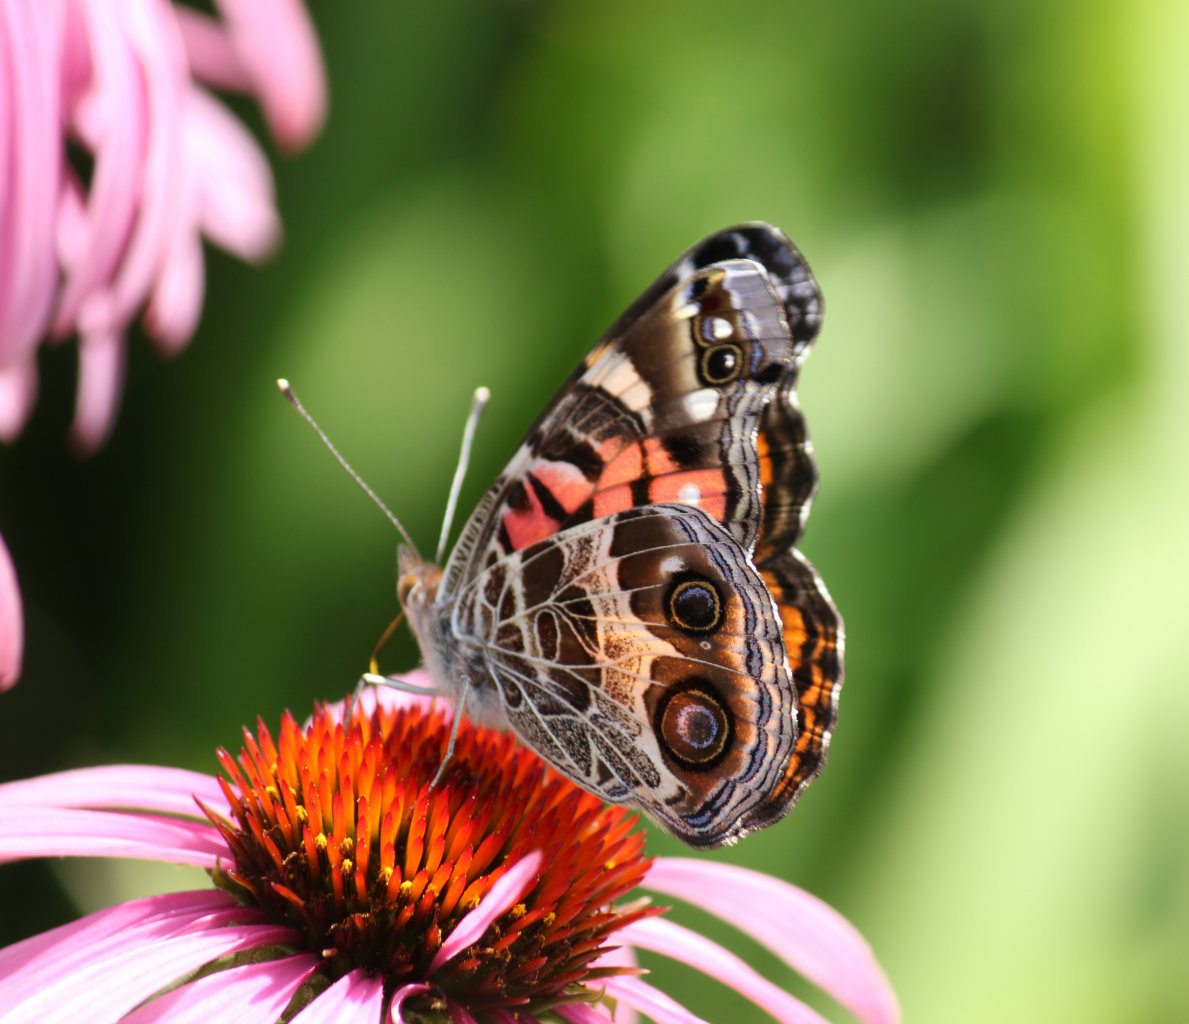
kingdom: Animalia
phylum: Arthropoda
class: Insecta
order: Lepidoptera
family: Nymphalidae
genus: Vanessa
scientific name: Vanessa virginiensis
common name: American Lady
